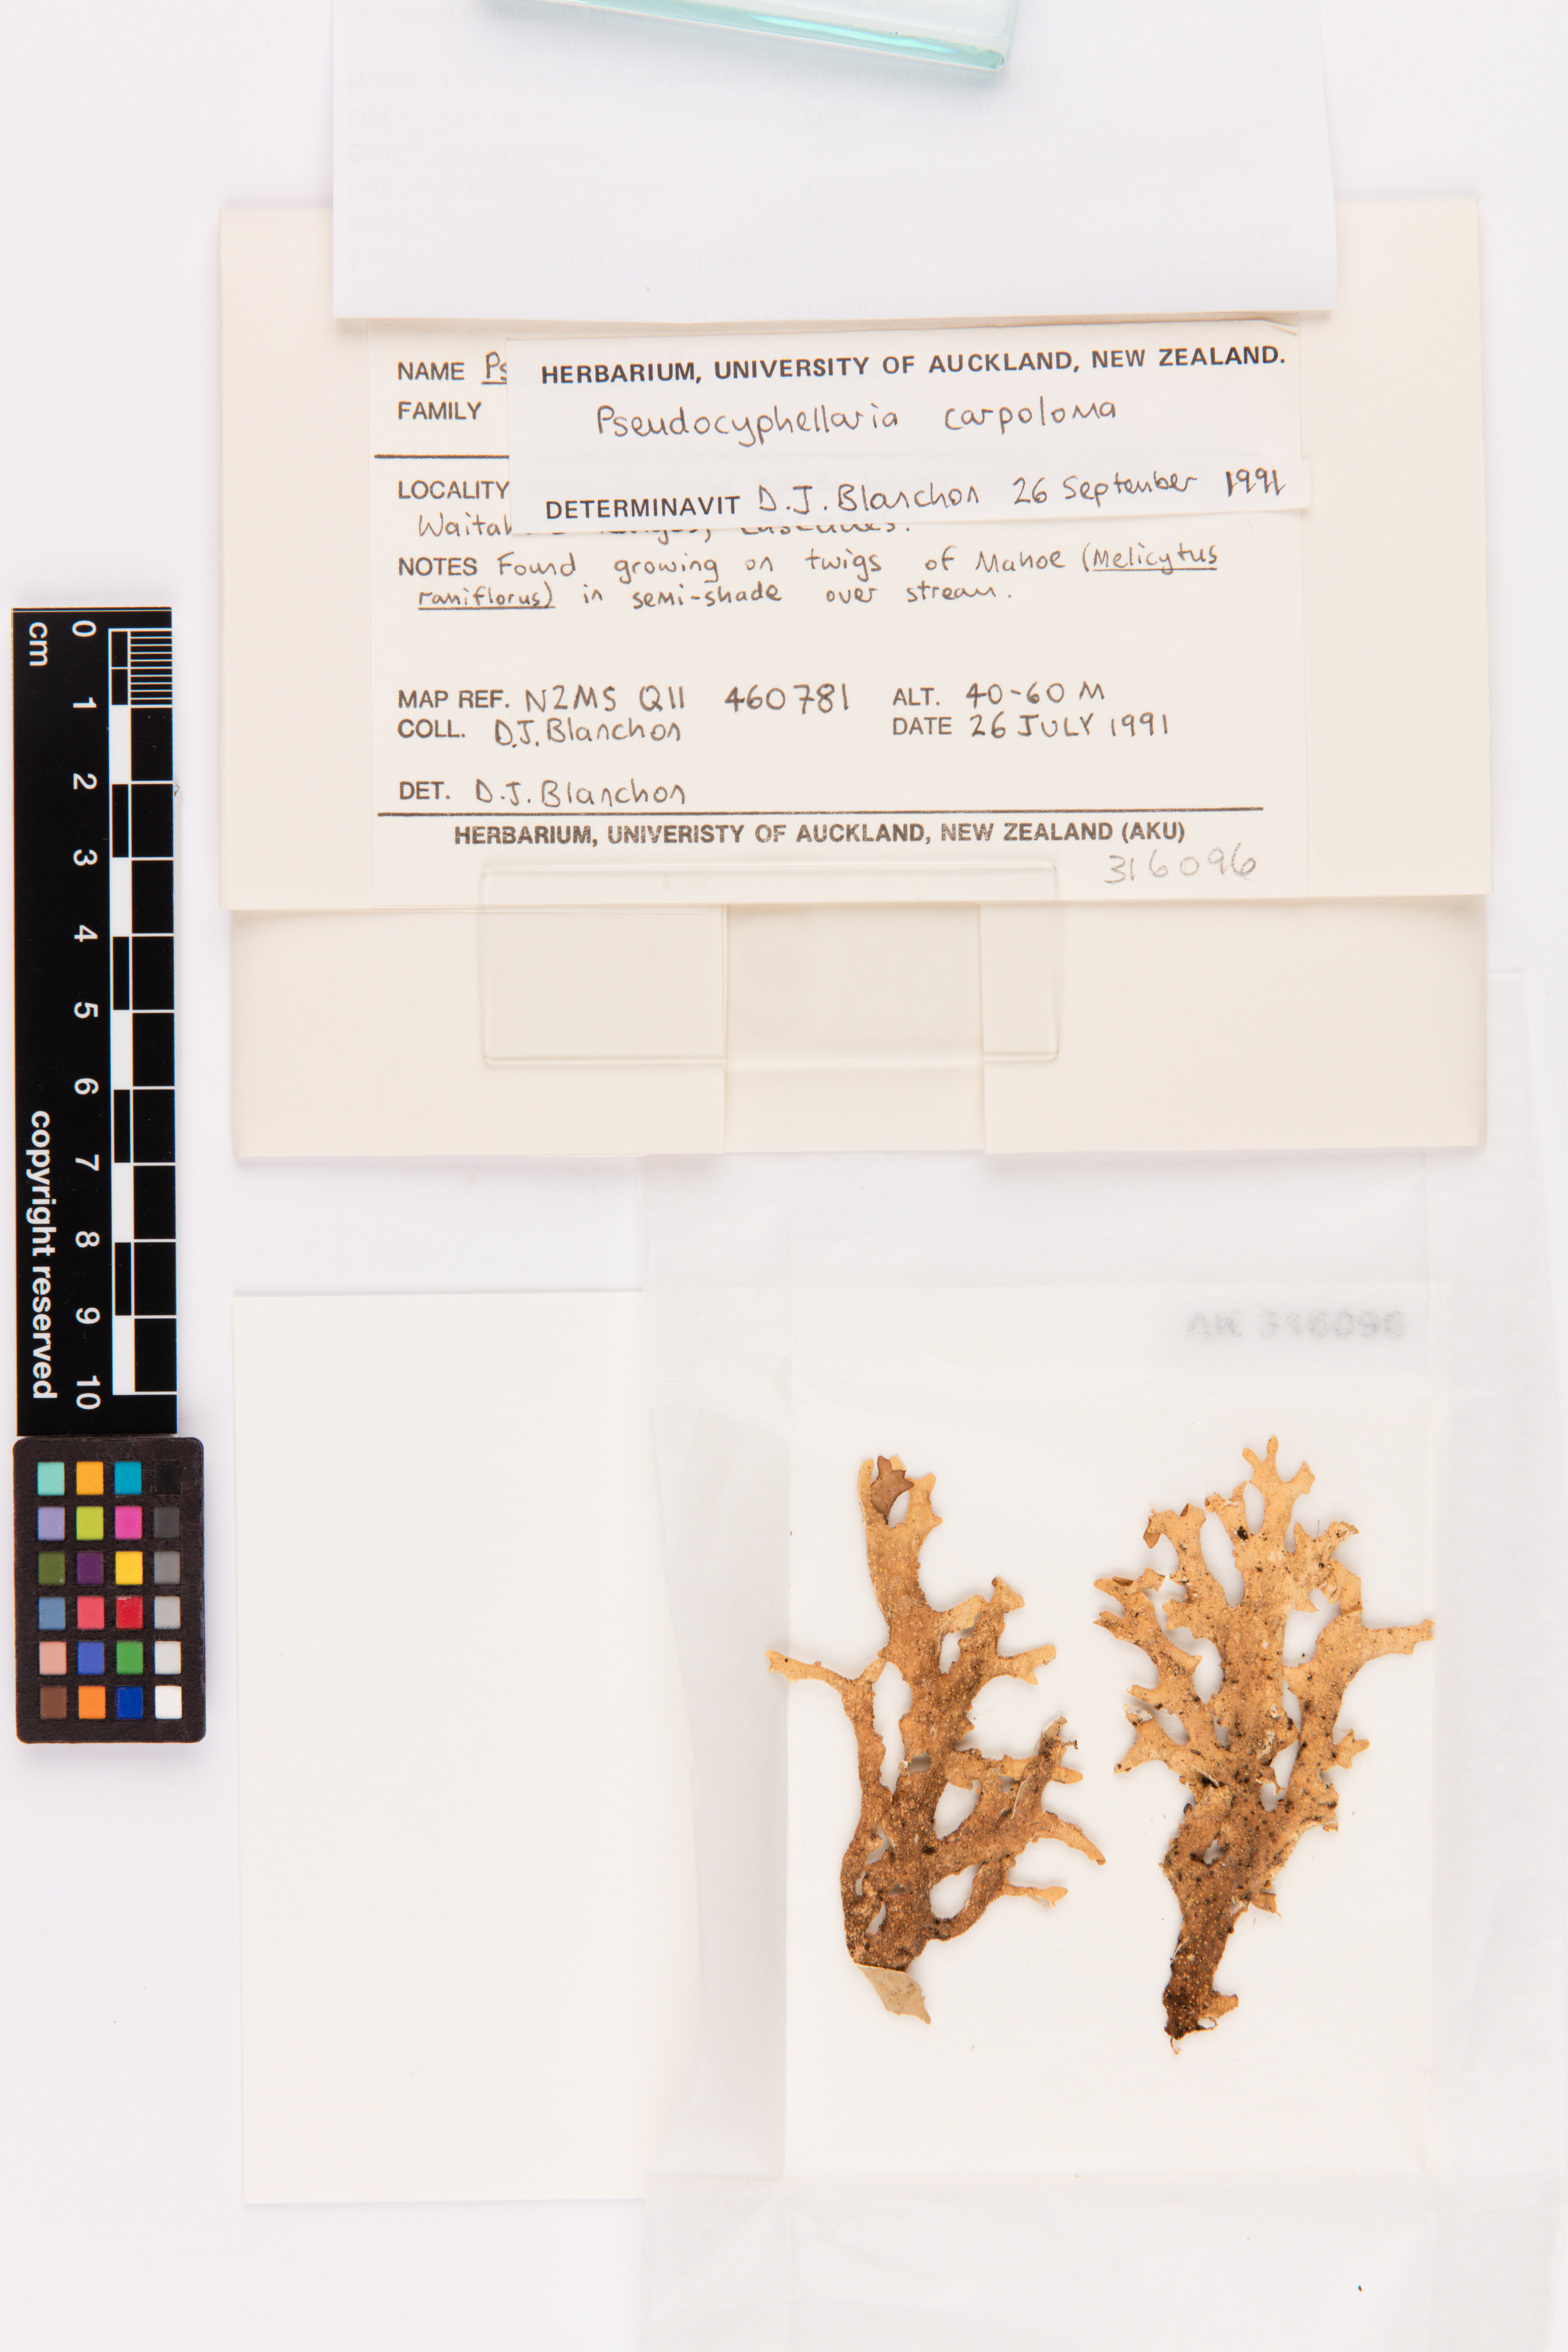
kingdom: Fungi
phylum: Ascomycota
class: Lecanoromycetes
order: Peltigerales
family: Lobariaceae
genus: Pseudocyphellaria
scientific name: Pseudocyphellaria carpoloma
